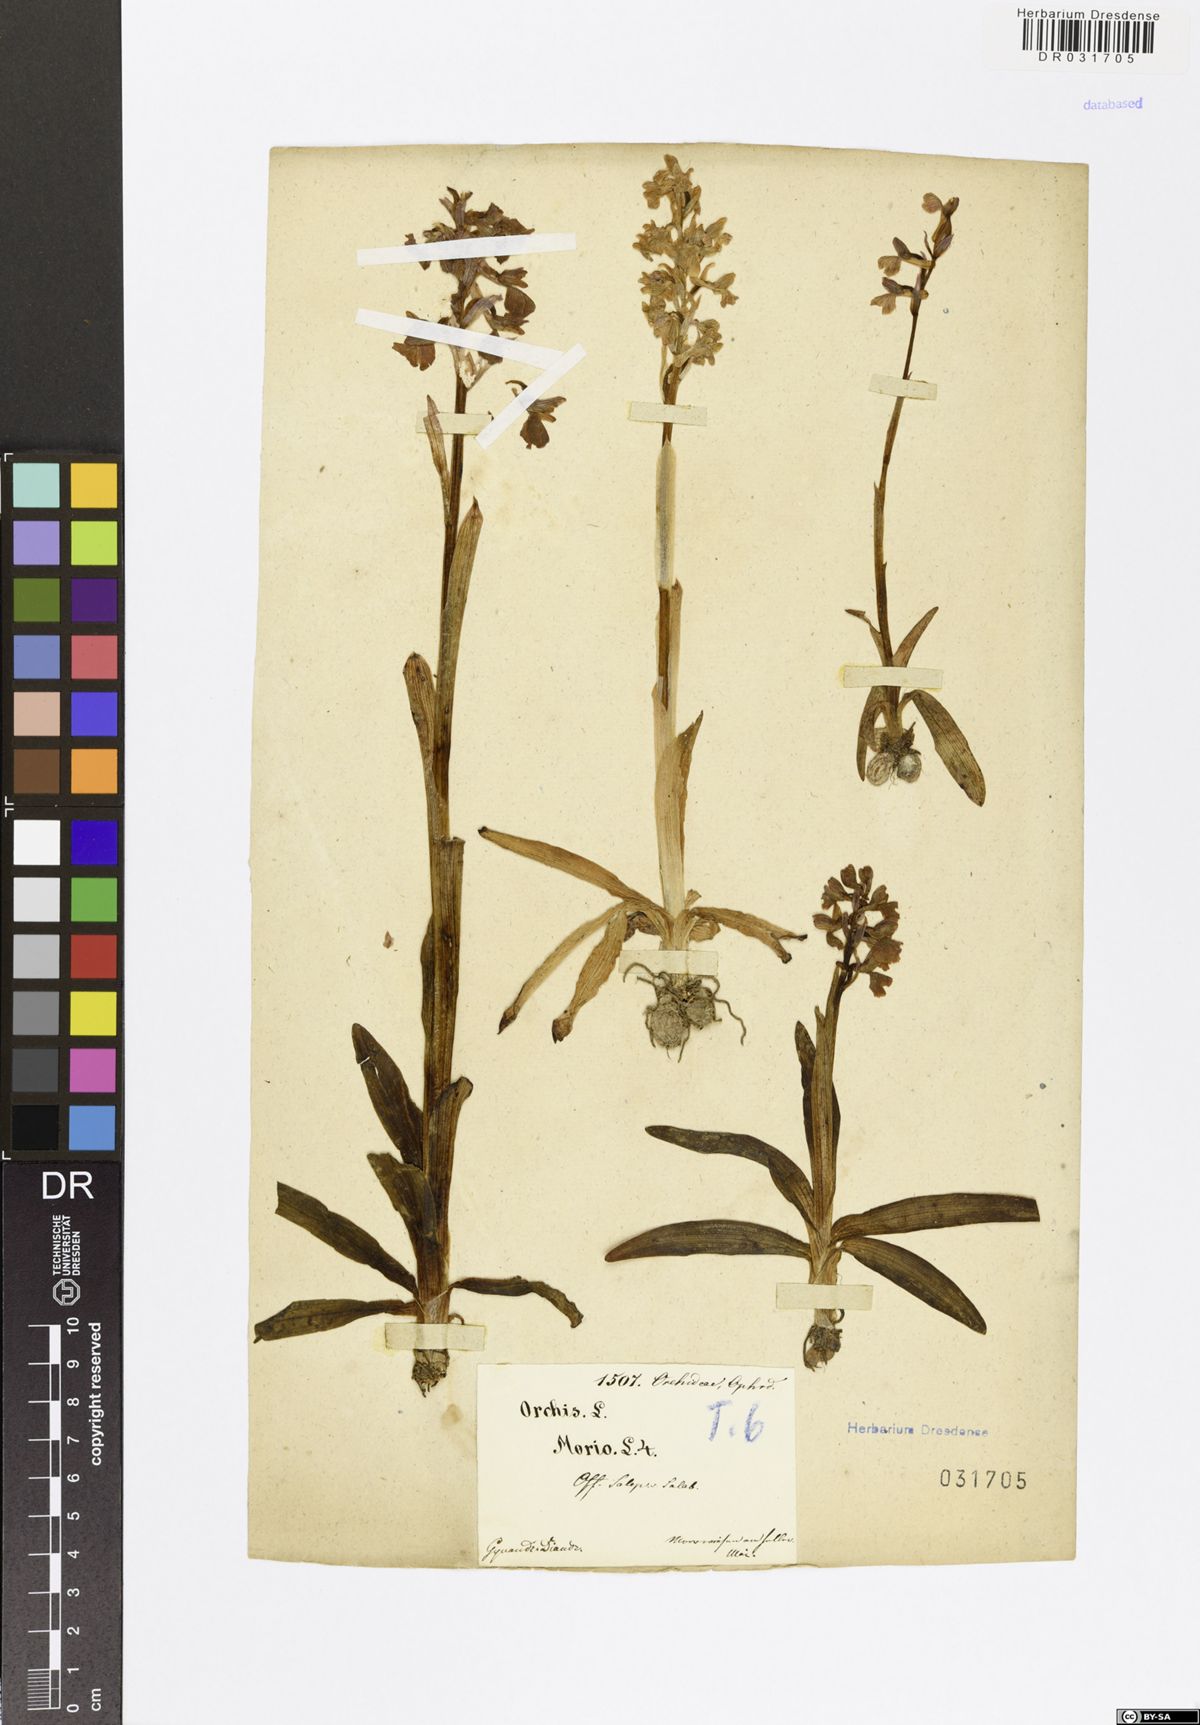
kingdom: Plantae
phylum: Tracheophyta
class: Liliopsida
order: Asparagales
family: Orchidaceae
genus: Anacamptis
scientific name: Anacamptis morio
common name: Green-winged orchid
